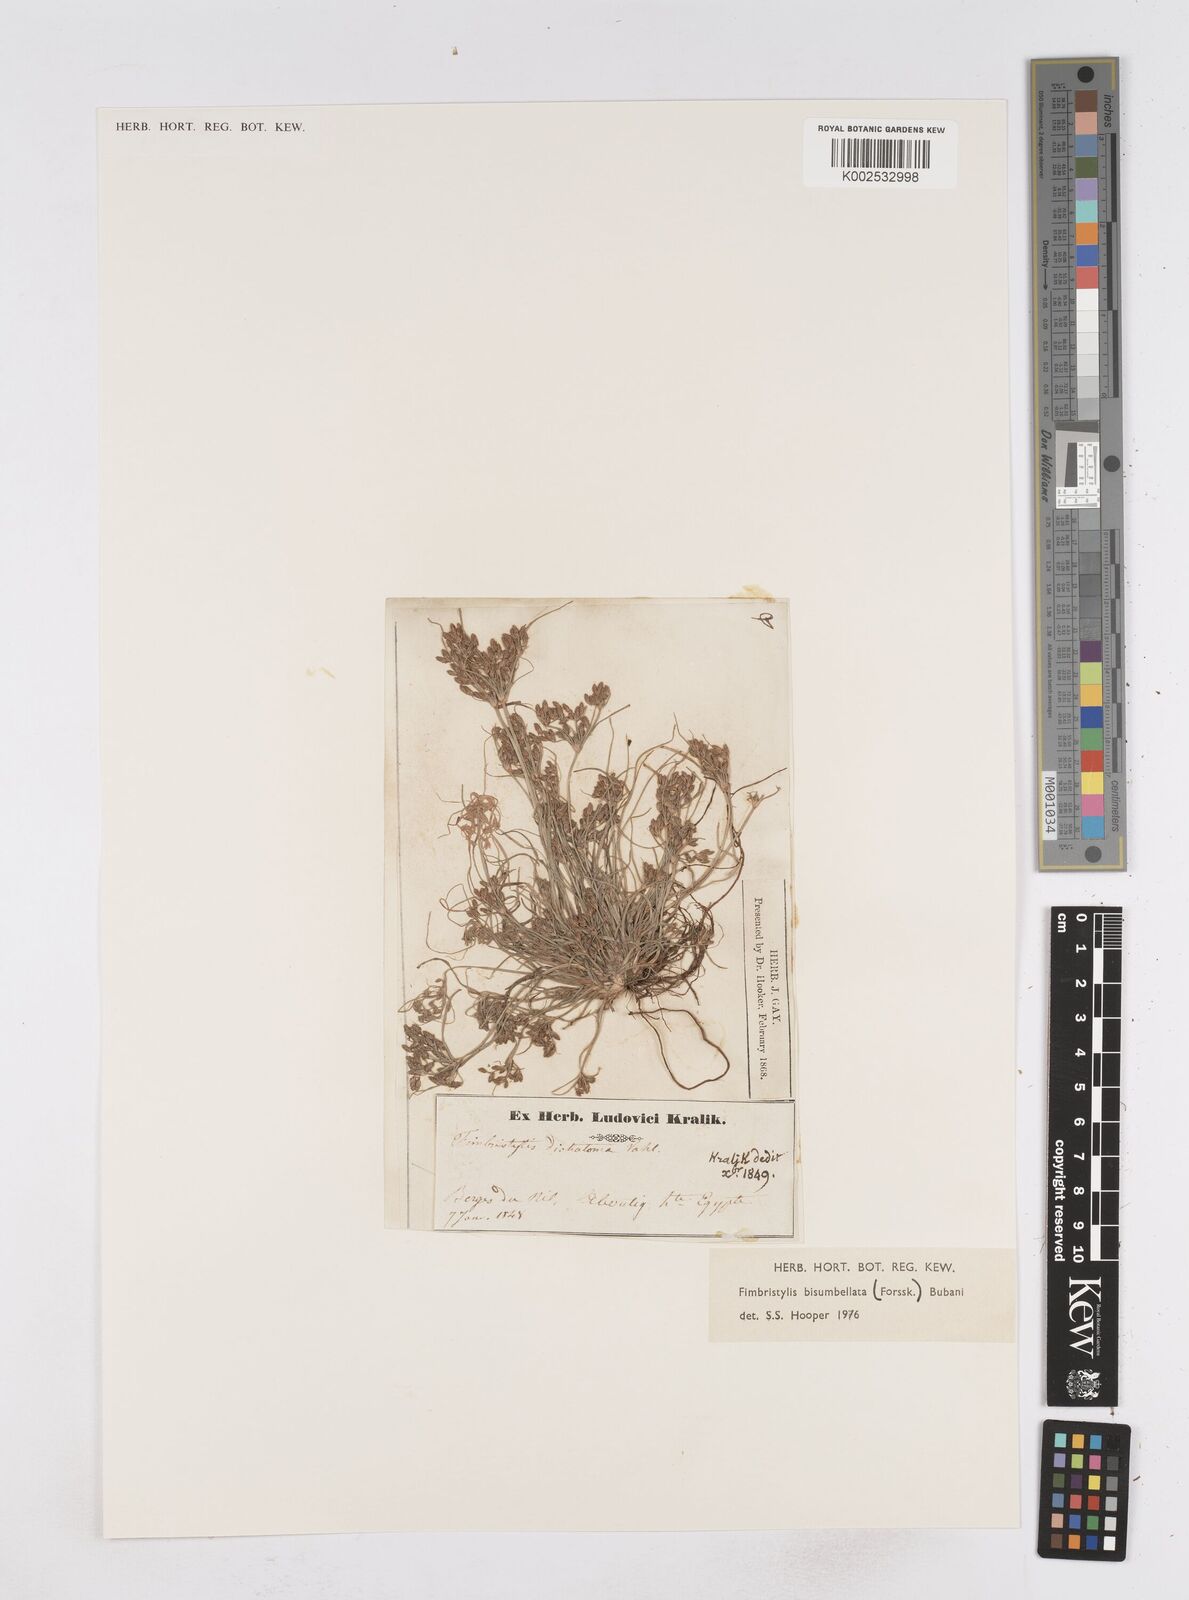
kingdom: Plantae
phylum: Tracheophyta
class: Liliopsida
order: Poales
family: Cyperaceae
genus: Fimbristylis
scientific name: Fimbristylis bisumbellata
